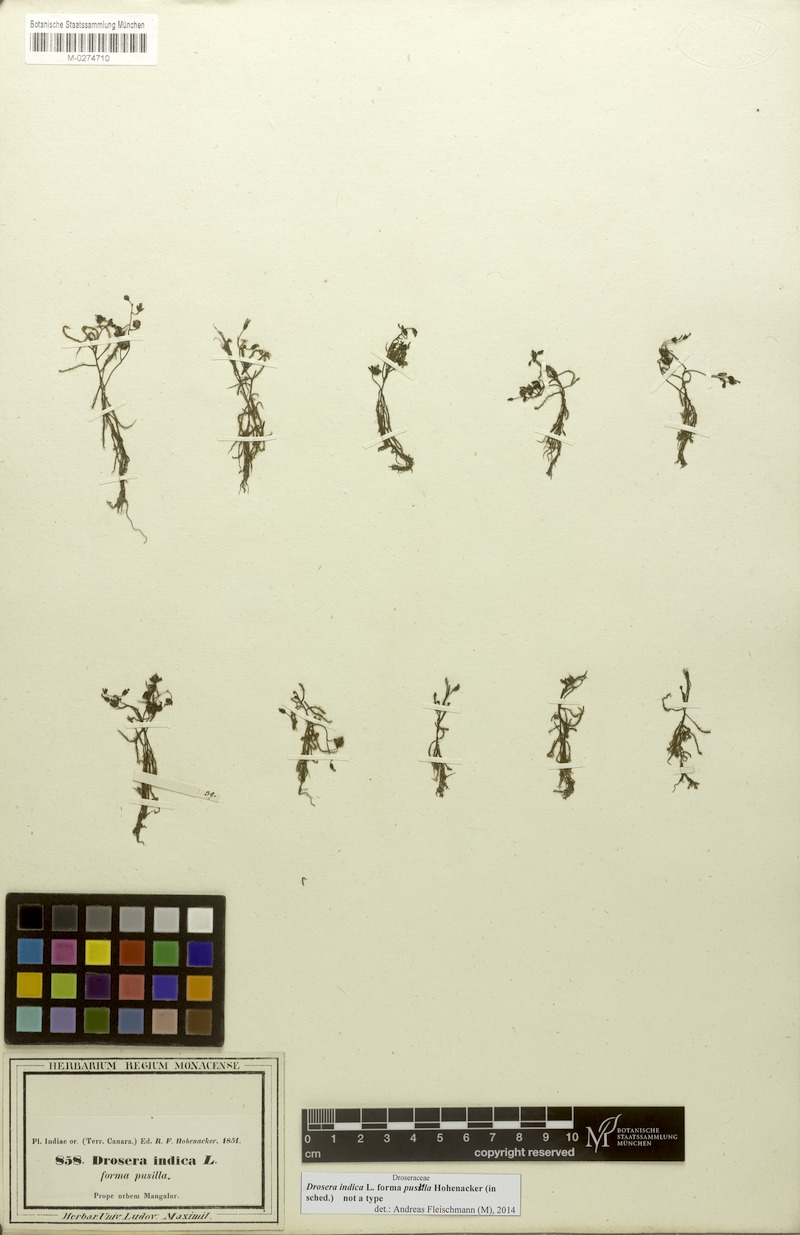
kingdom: Plantae
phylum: Tracheophyta
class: Magnoliopsida
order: Caryophyllales
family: Droseraceae
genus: Drosera
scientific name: Drosera indica
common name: Indian sundew
